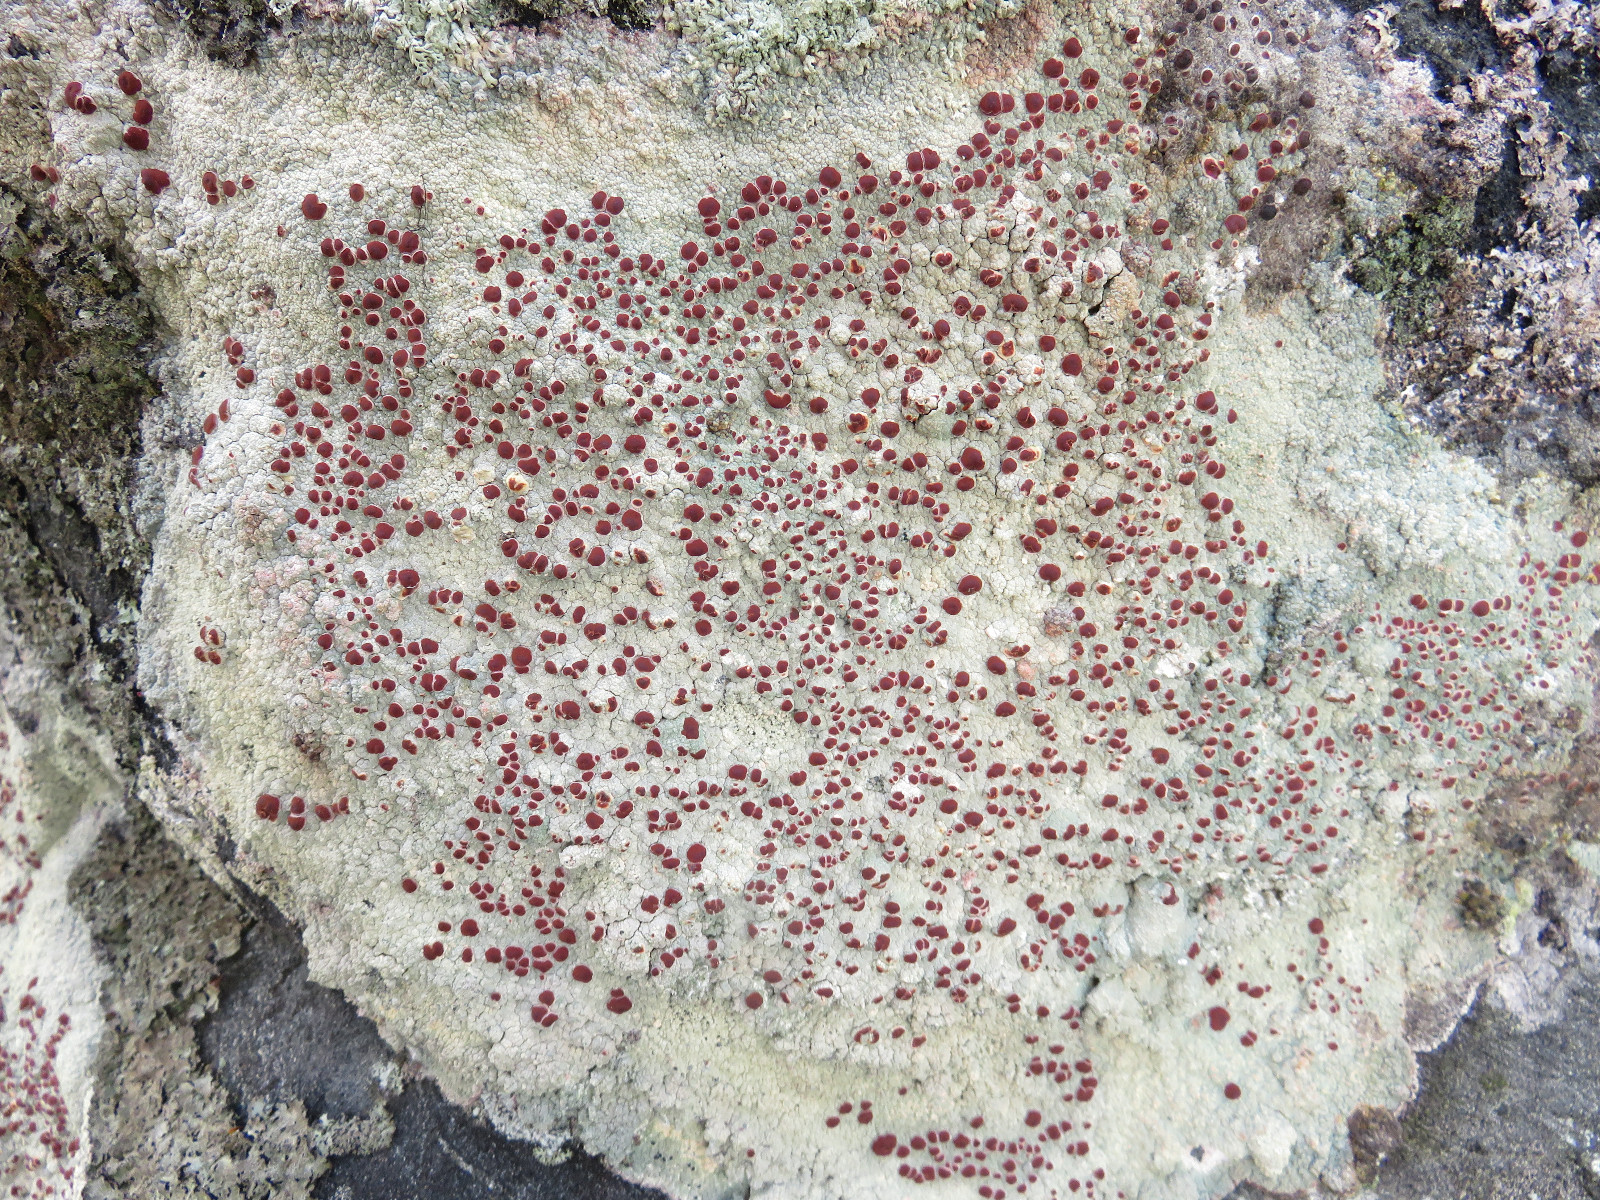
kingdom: Fungi
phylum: Ascomycota
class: Lecanoromycetes
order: Umbilicariales
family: Ophioparmaceae
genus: Ophioparma
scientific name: Ophioparma
